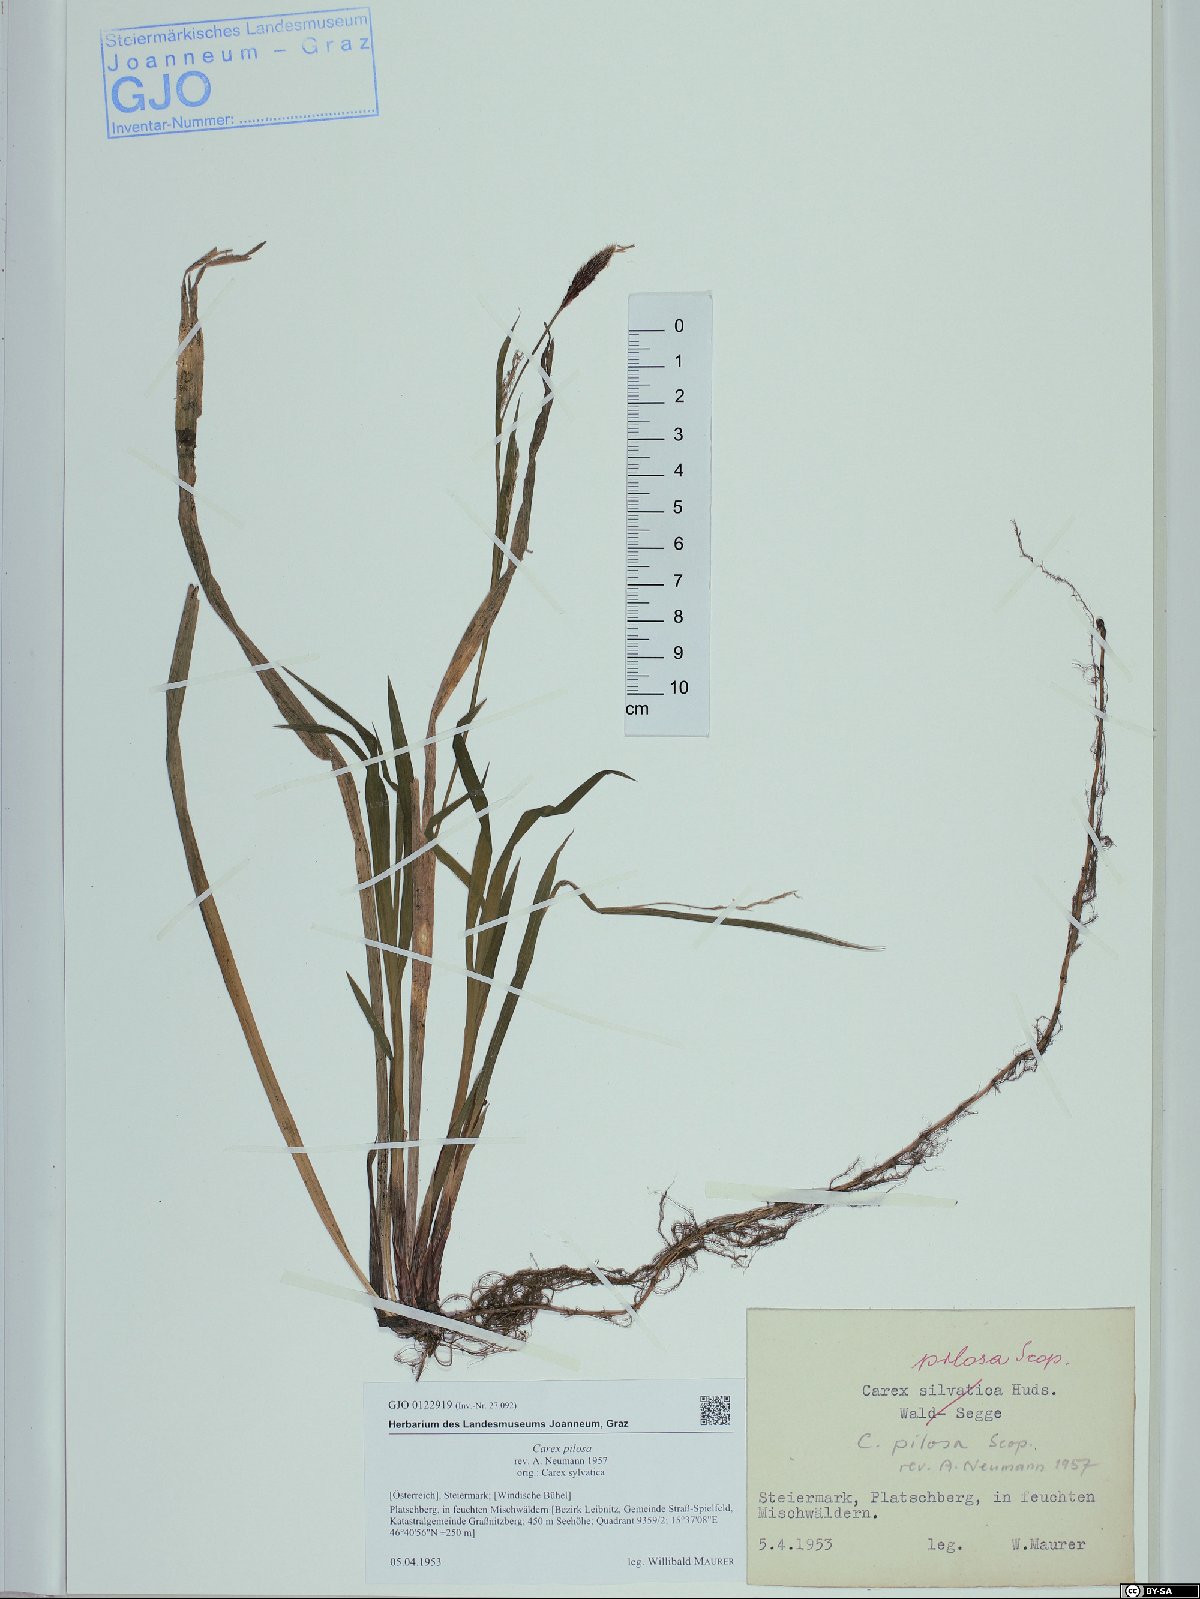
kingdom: Plantae
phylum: Tracheophyta
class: Liliopsida
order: Poales
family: Cyperaceae
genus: Carex
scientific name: Carex pilosa
